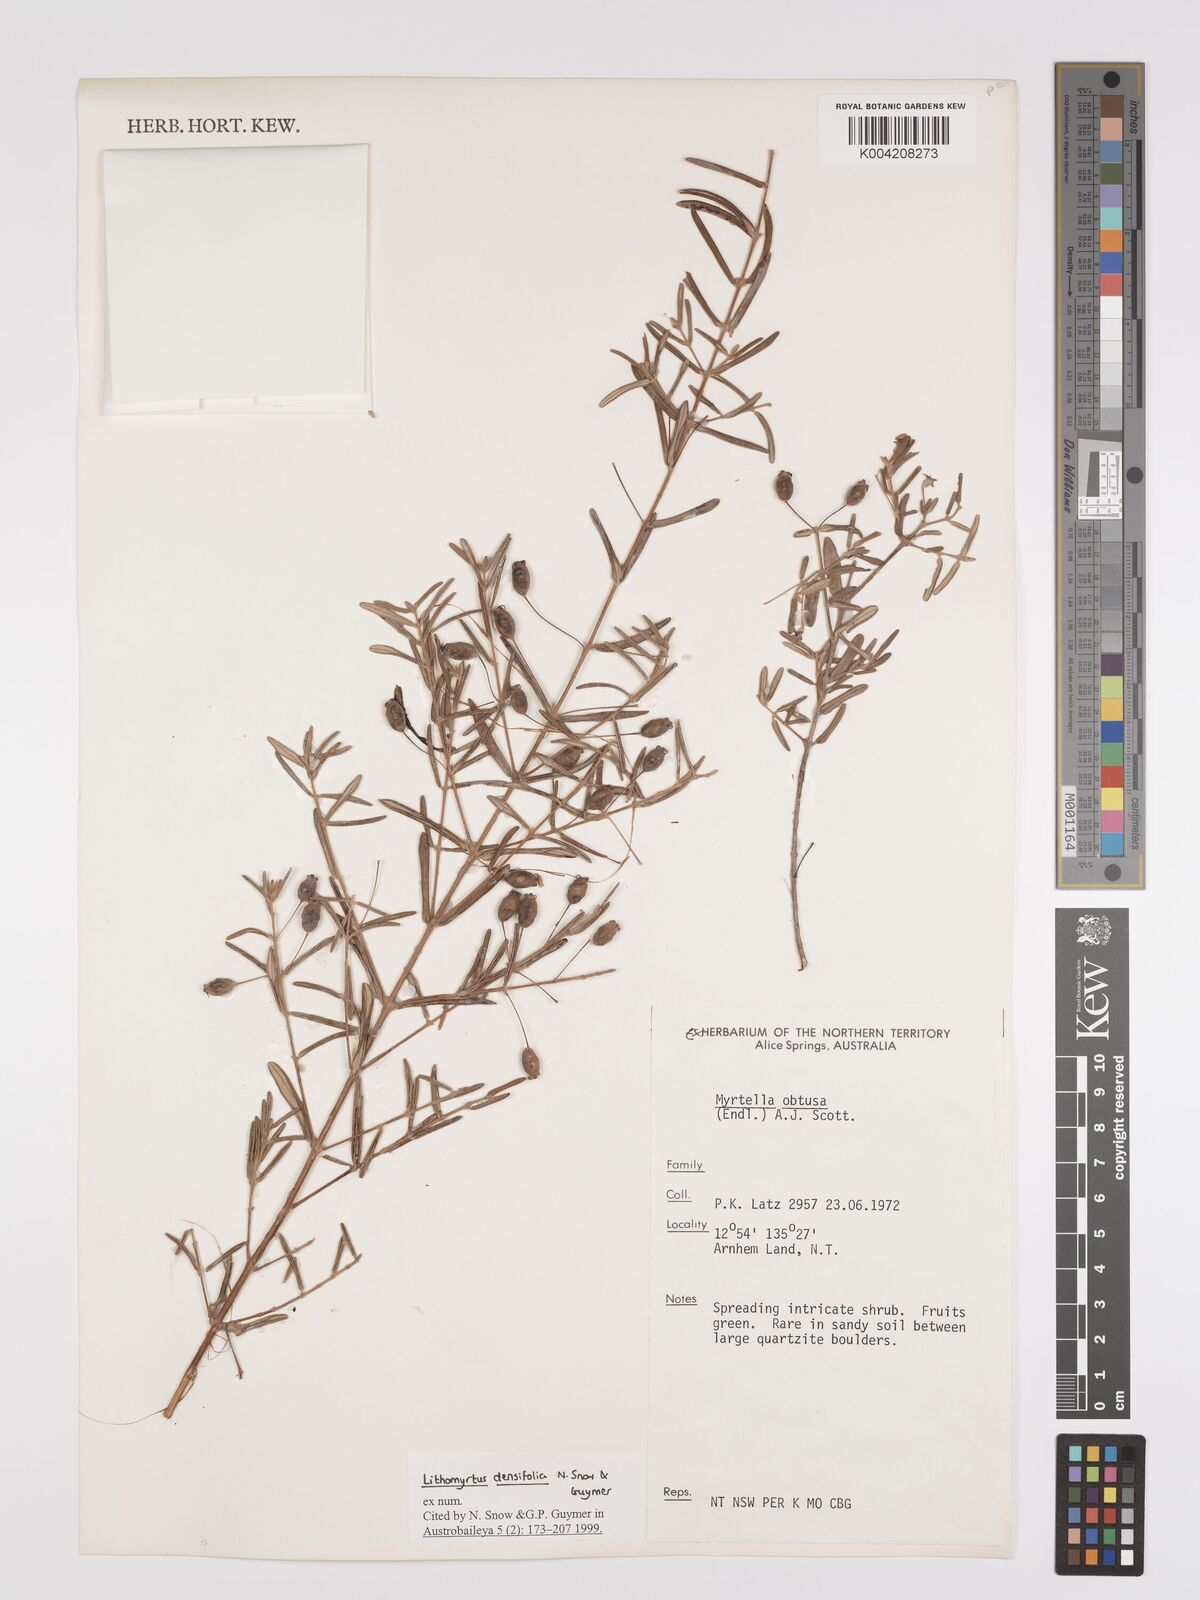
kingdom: Plantae
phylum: Tracheophyta
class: Magnoliopsida
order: Myrtales
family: Myrtaceae
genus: Lithomyrtus
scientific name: Lithomyrtus densifolia
